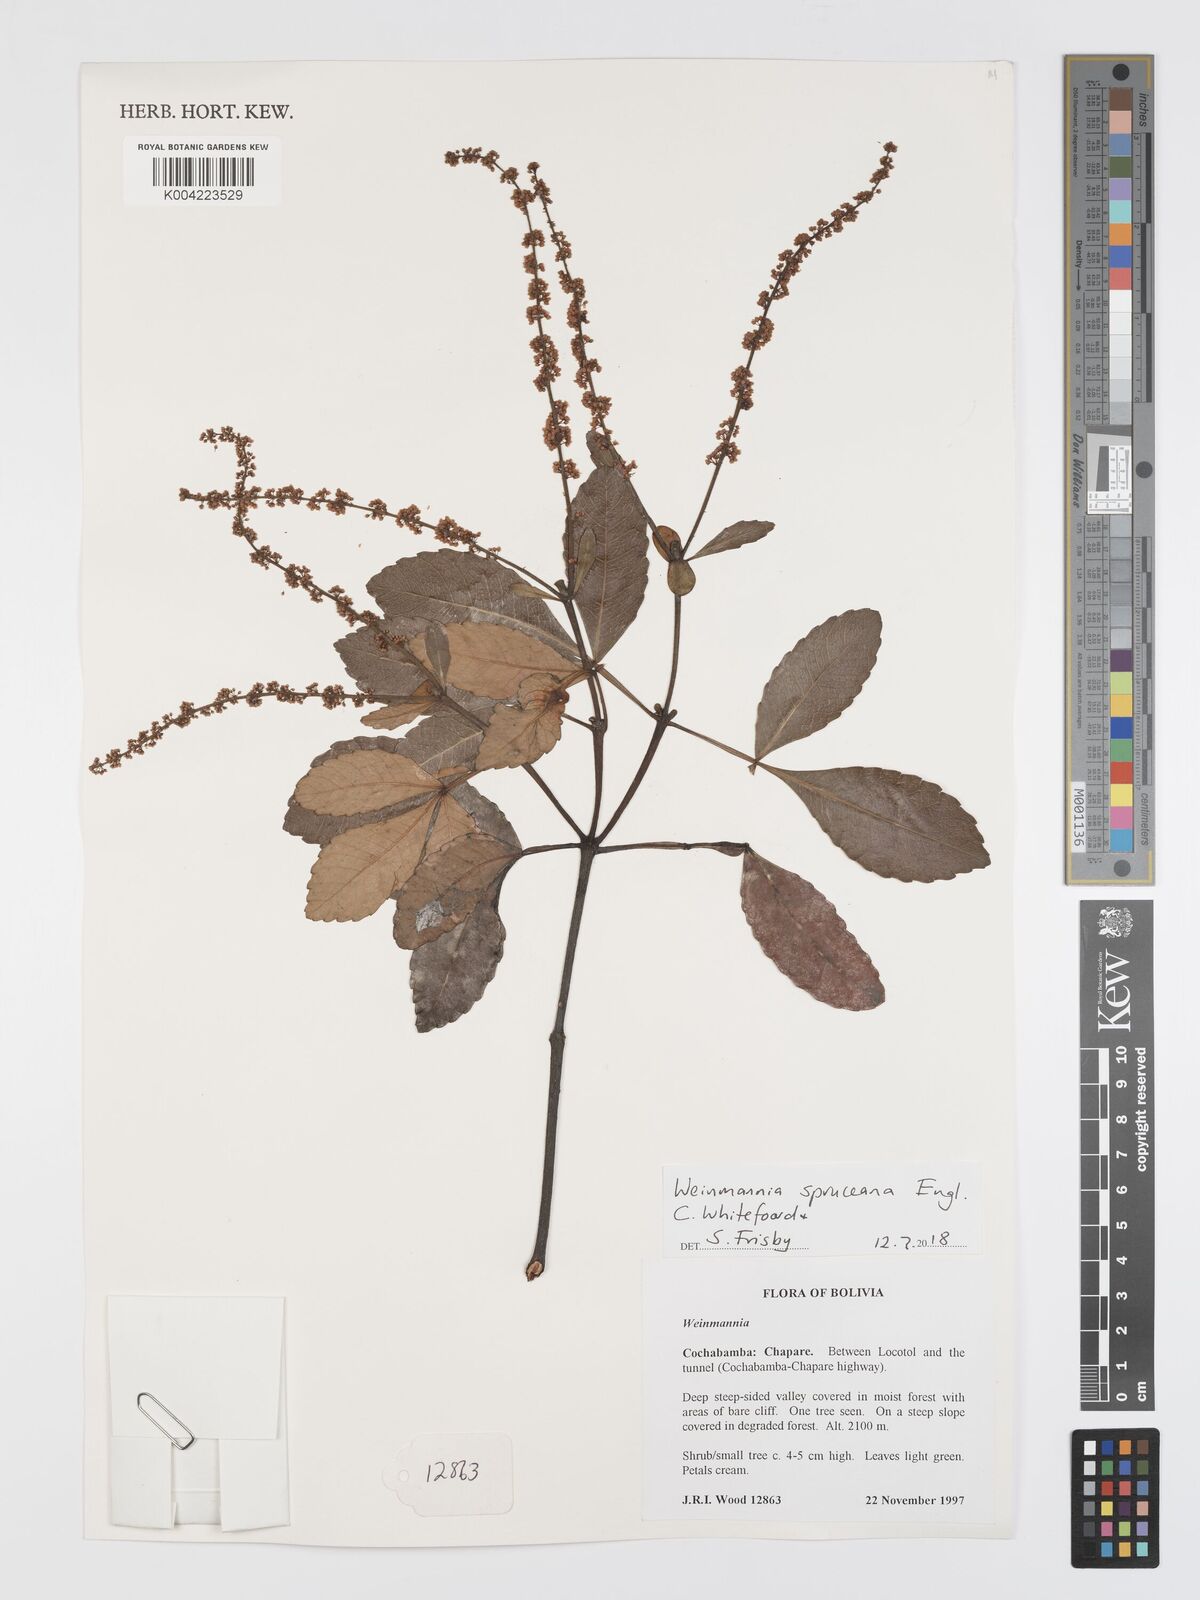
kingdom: Plantae
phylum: Tracheophyta
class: Magnoliopsida
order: Oxalidales
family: Cunoniaceae
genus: Weinmannia
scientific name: Weinmannia spruceana
